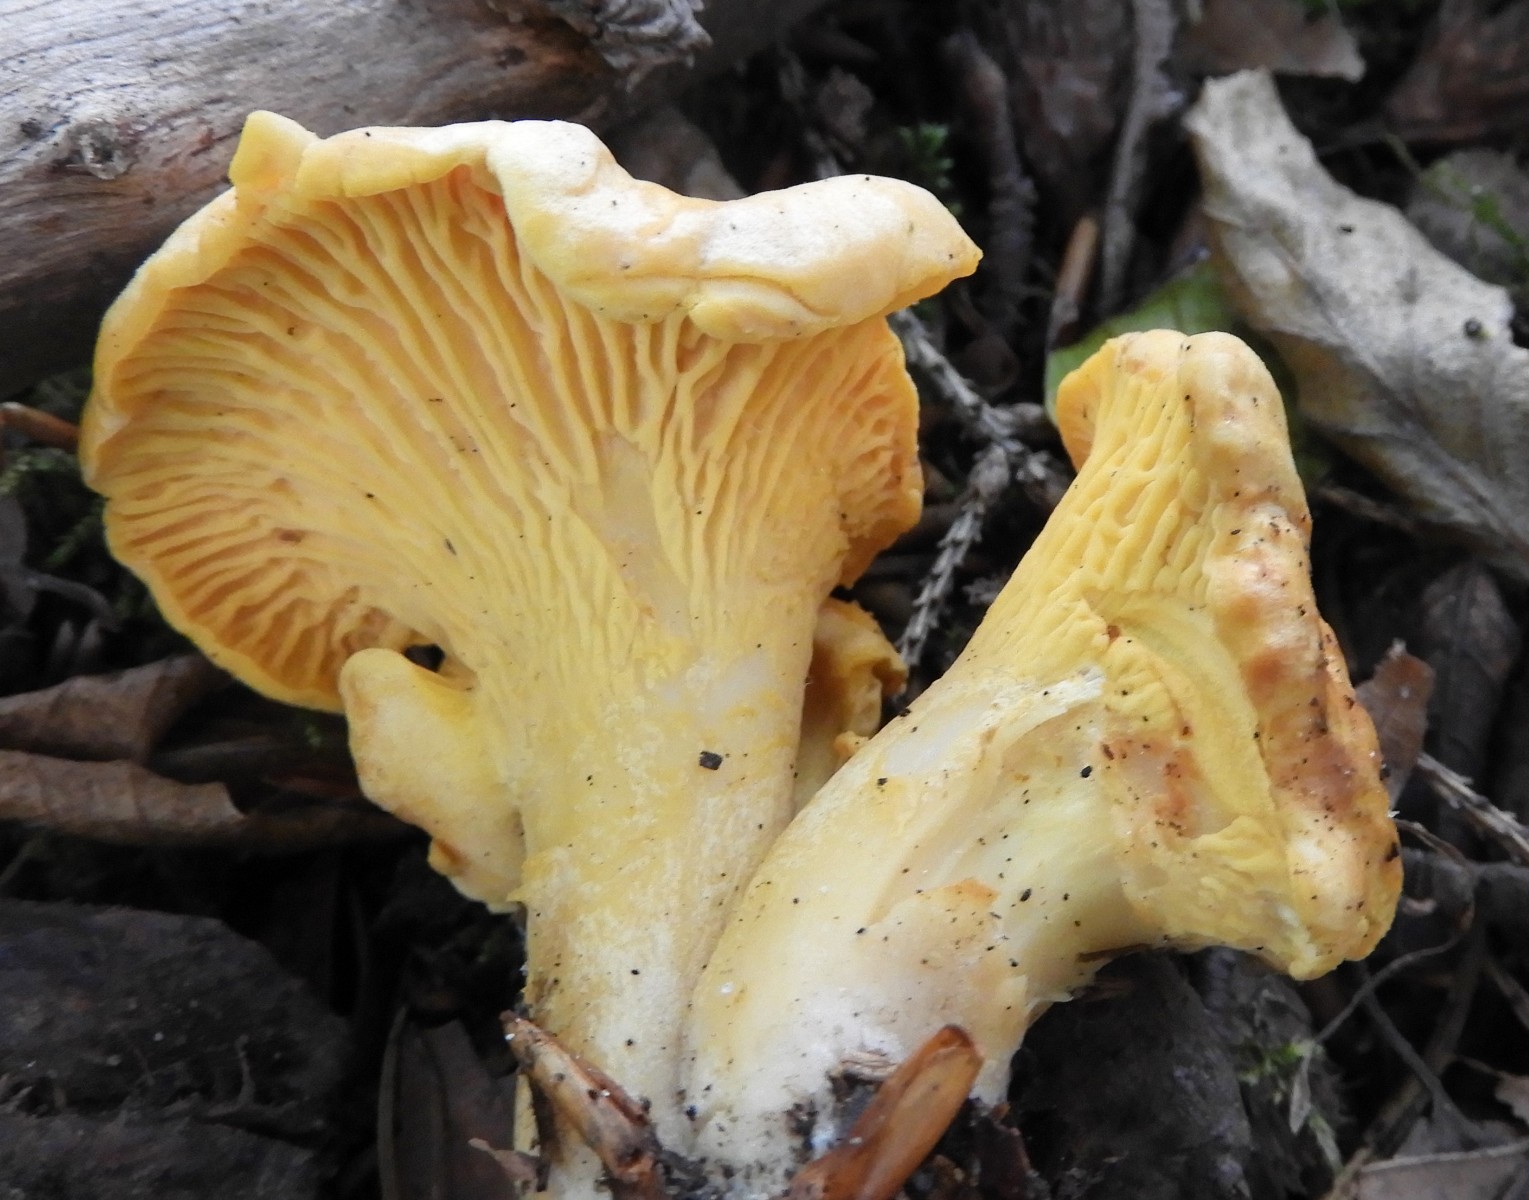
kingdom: Fungi
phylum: Basidiomycota
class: Agaricomycetes
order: Cantharellales
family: Hydnaceae
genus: Cantharellus
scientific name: Cantharellus pallens
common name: bleg kantarel
